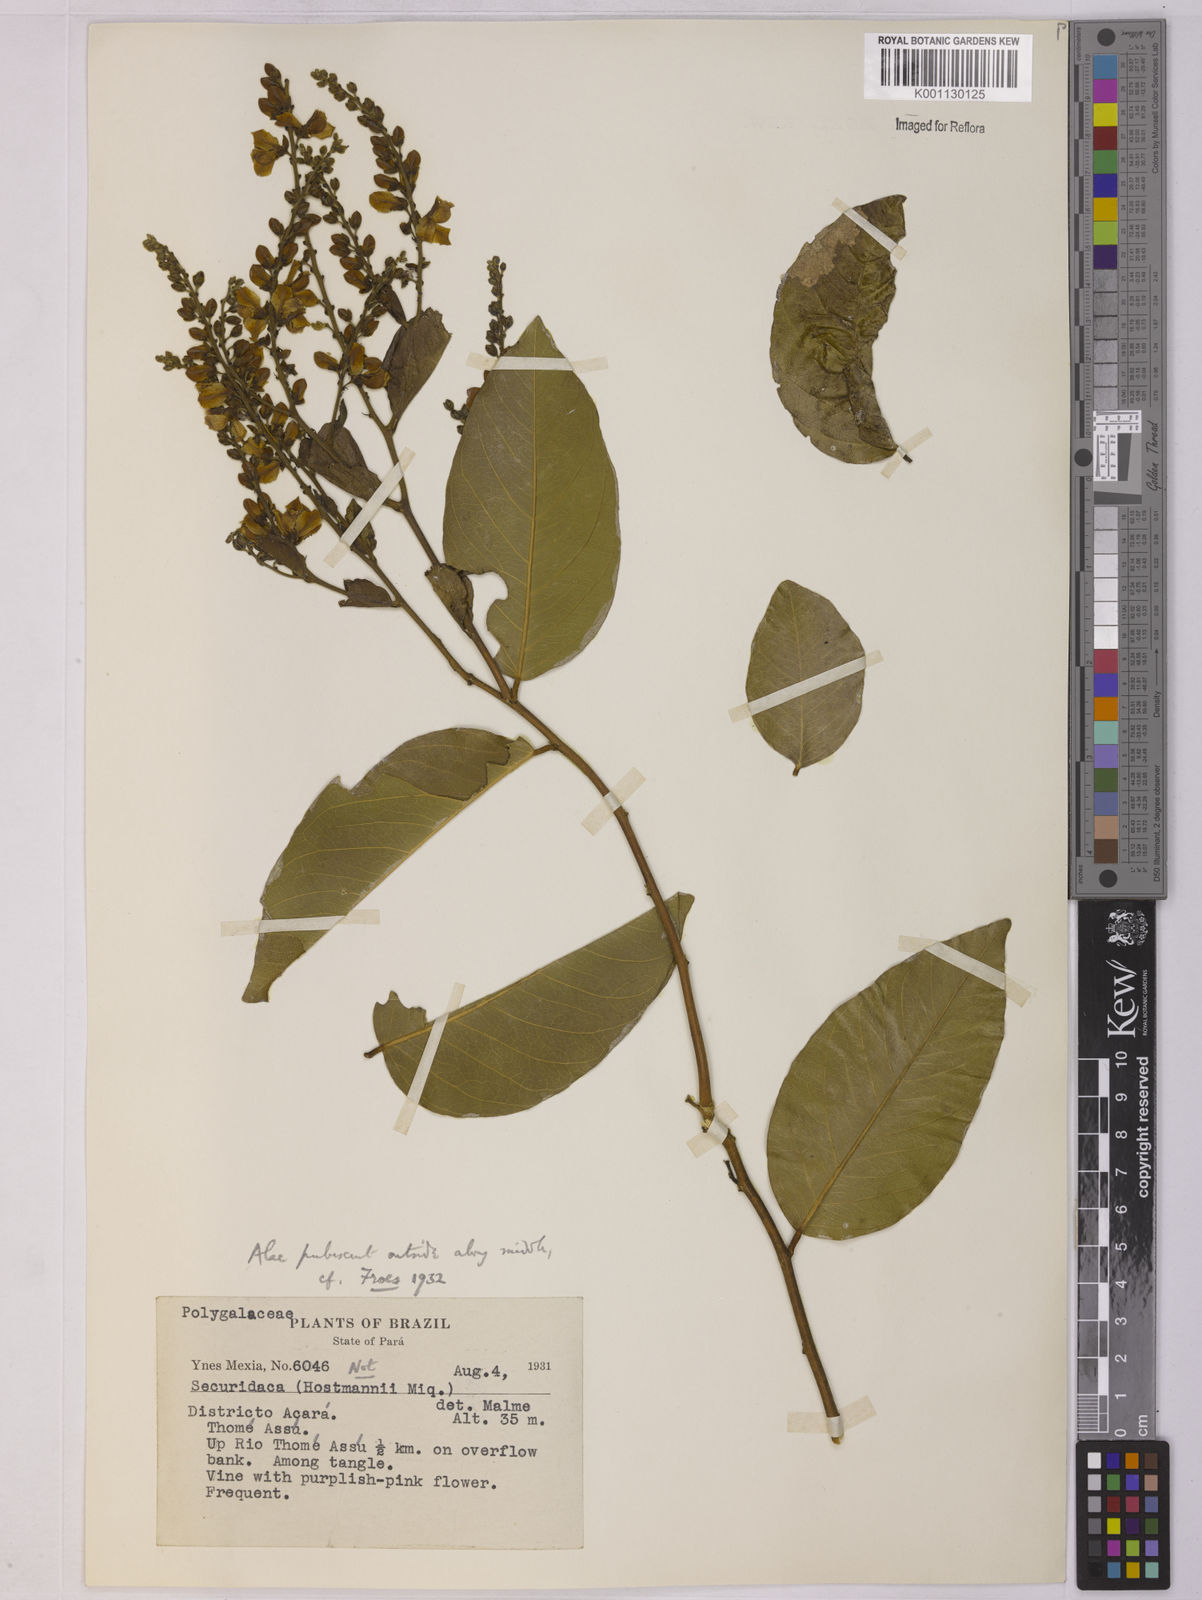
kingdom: Plantae
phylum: Tracheophyta
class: Magnoliopsida
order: Fabales
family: Polygalaceae
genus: Securidaca
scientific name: Securidaca longifolia
